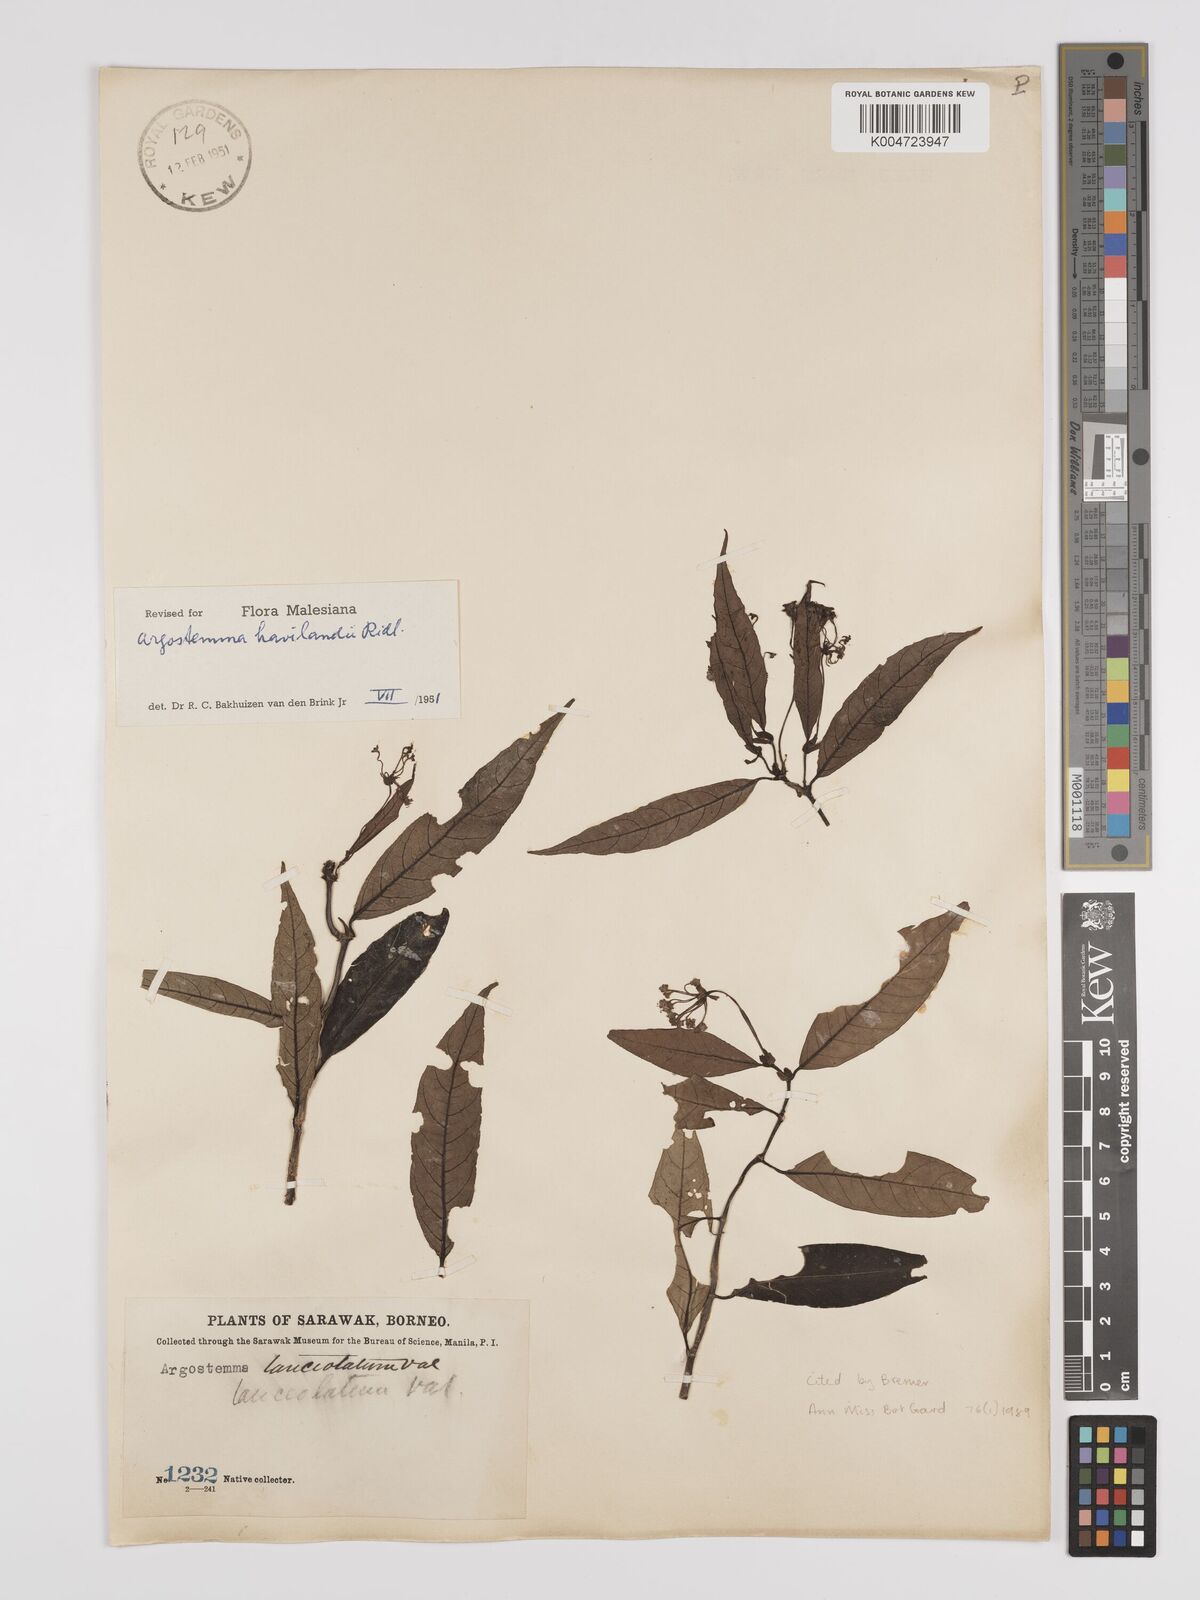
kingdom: Plantae
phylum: Tracheophyta
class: Magnoliopsida
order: Gentianales
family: Rubiaceae
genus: Argostemma
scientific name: Argostemma havilandii
